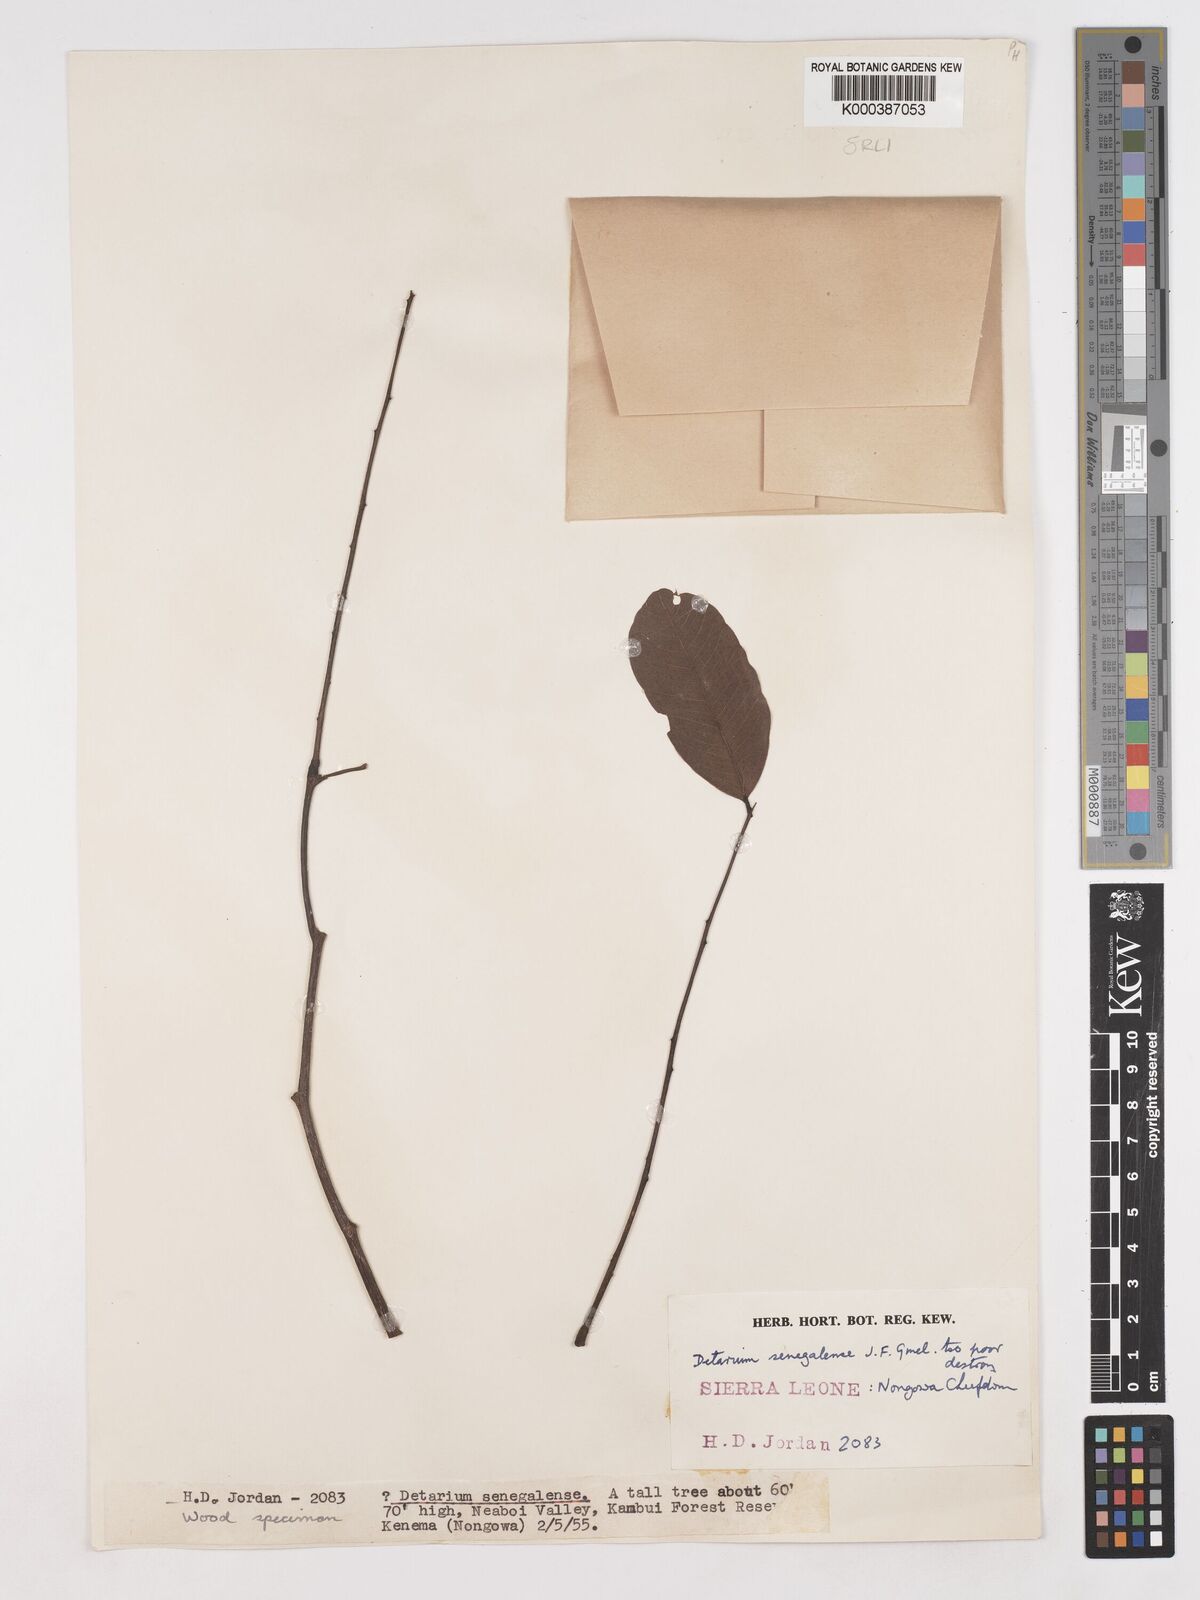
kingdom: Plantae
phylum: Tracheophyta
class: Magnoliopsida
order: Fabales
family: Fabaceae
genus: Detarium
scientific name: Detarium microcarpum
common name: Sweet dattock
